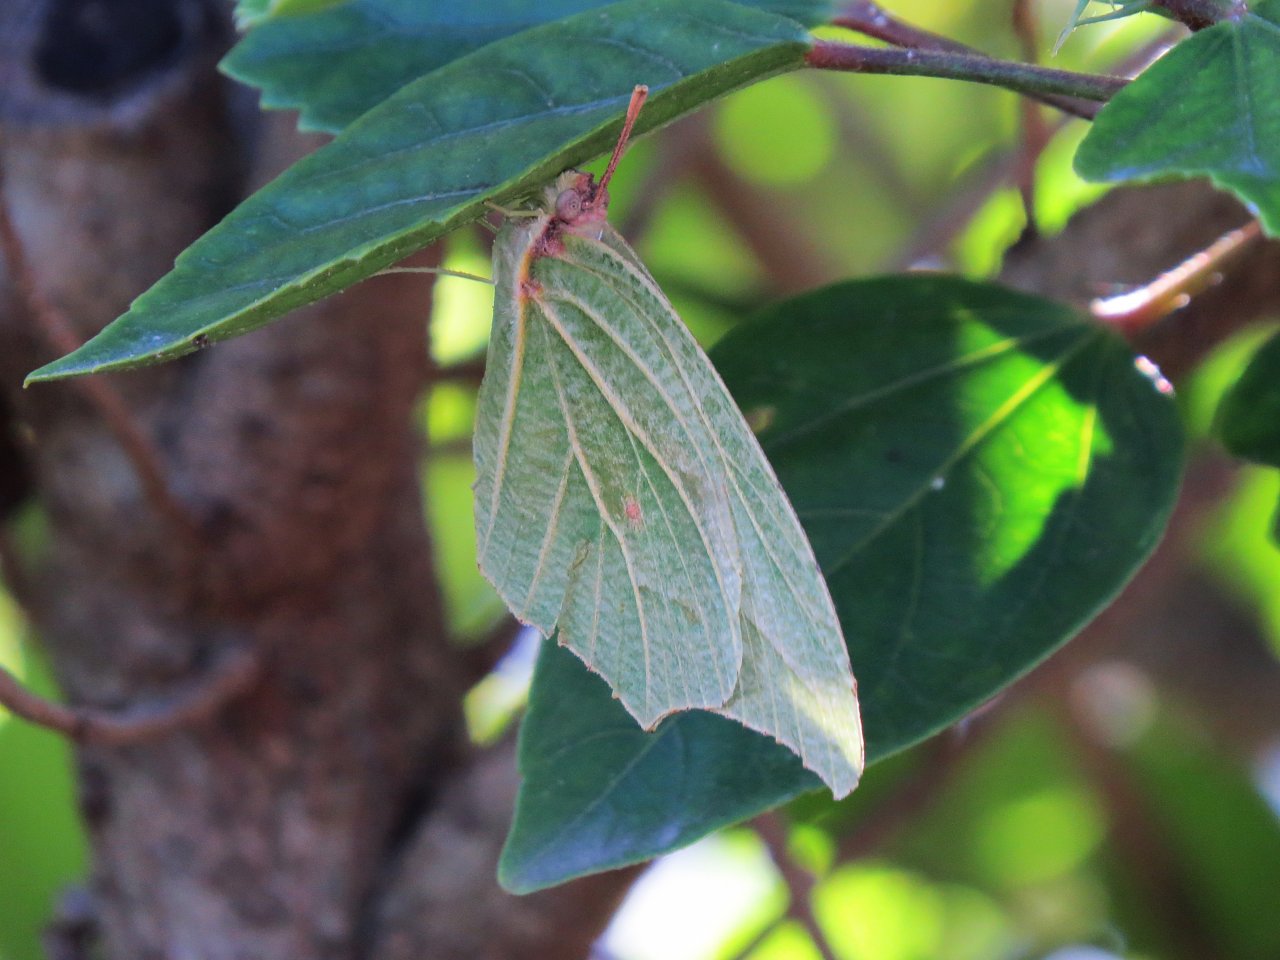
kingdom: Animalia
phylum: Arthropoda
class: Insecta
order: Lepidoptera
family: Pieridae
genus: Anteos
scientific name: Anteos clorinde
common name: White Angled-Sulphur
